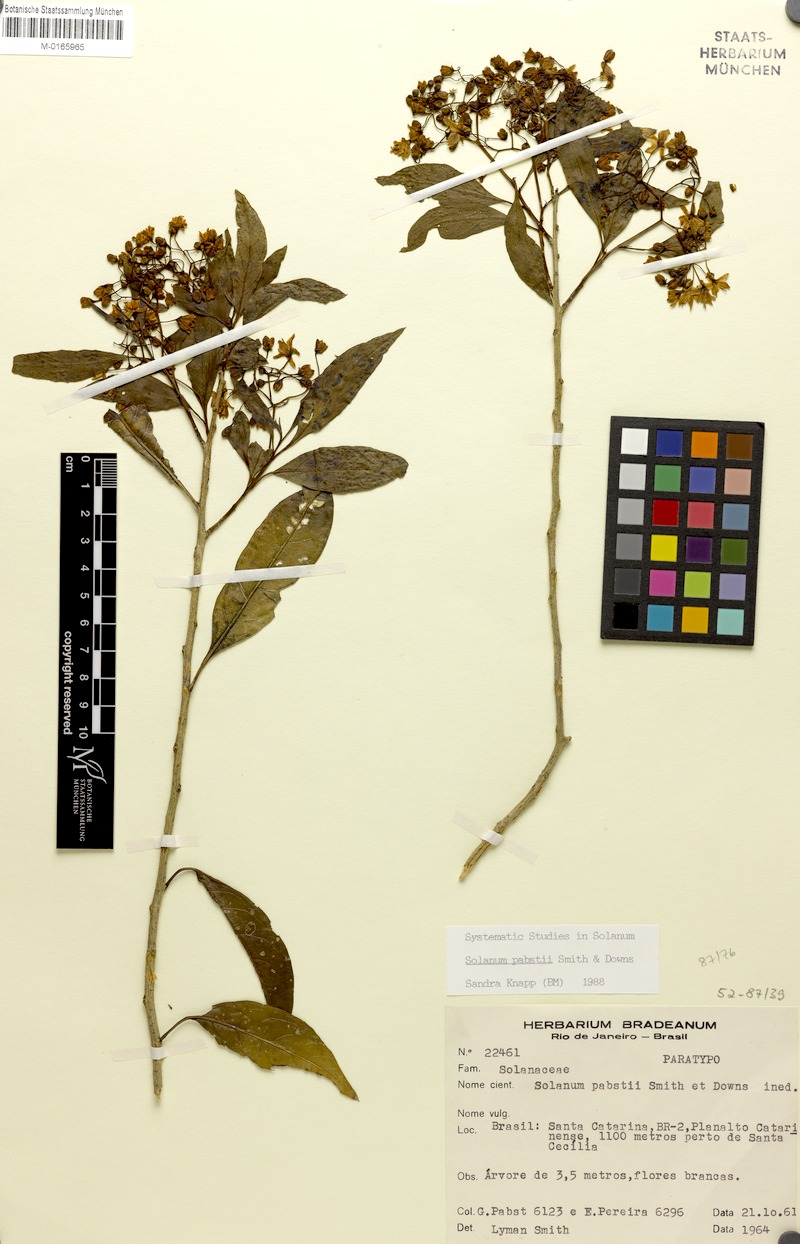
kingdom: Plantae
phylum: Tracheophyta
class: Magnoliopsida
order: Solanales
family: Solanaceae
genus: Solanum
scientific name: Solanum pabstii
